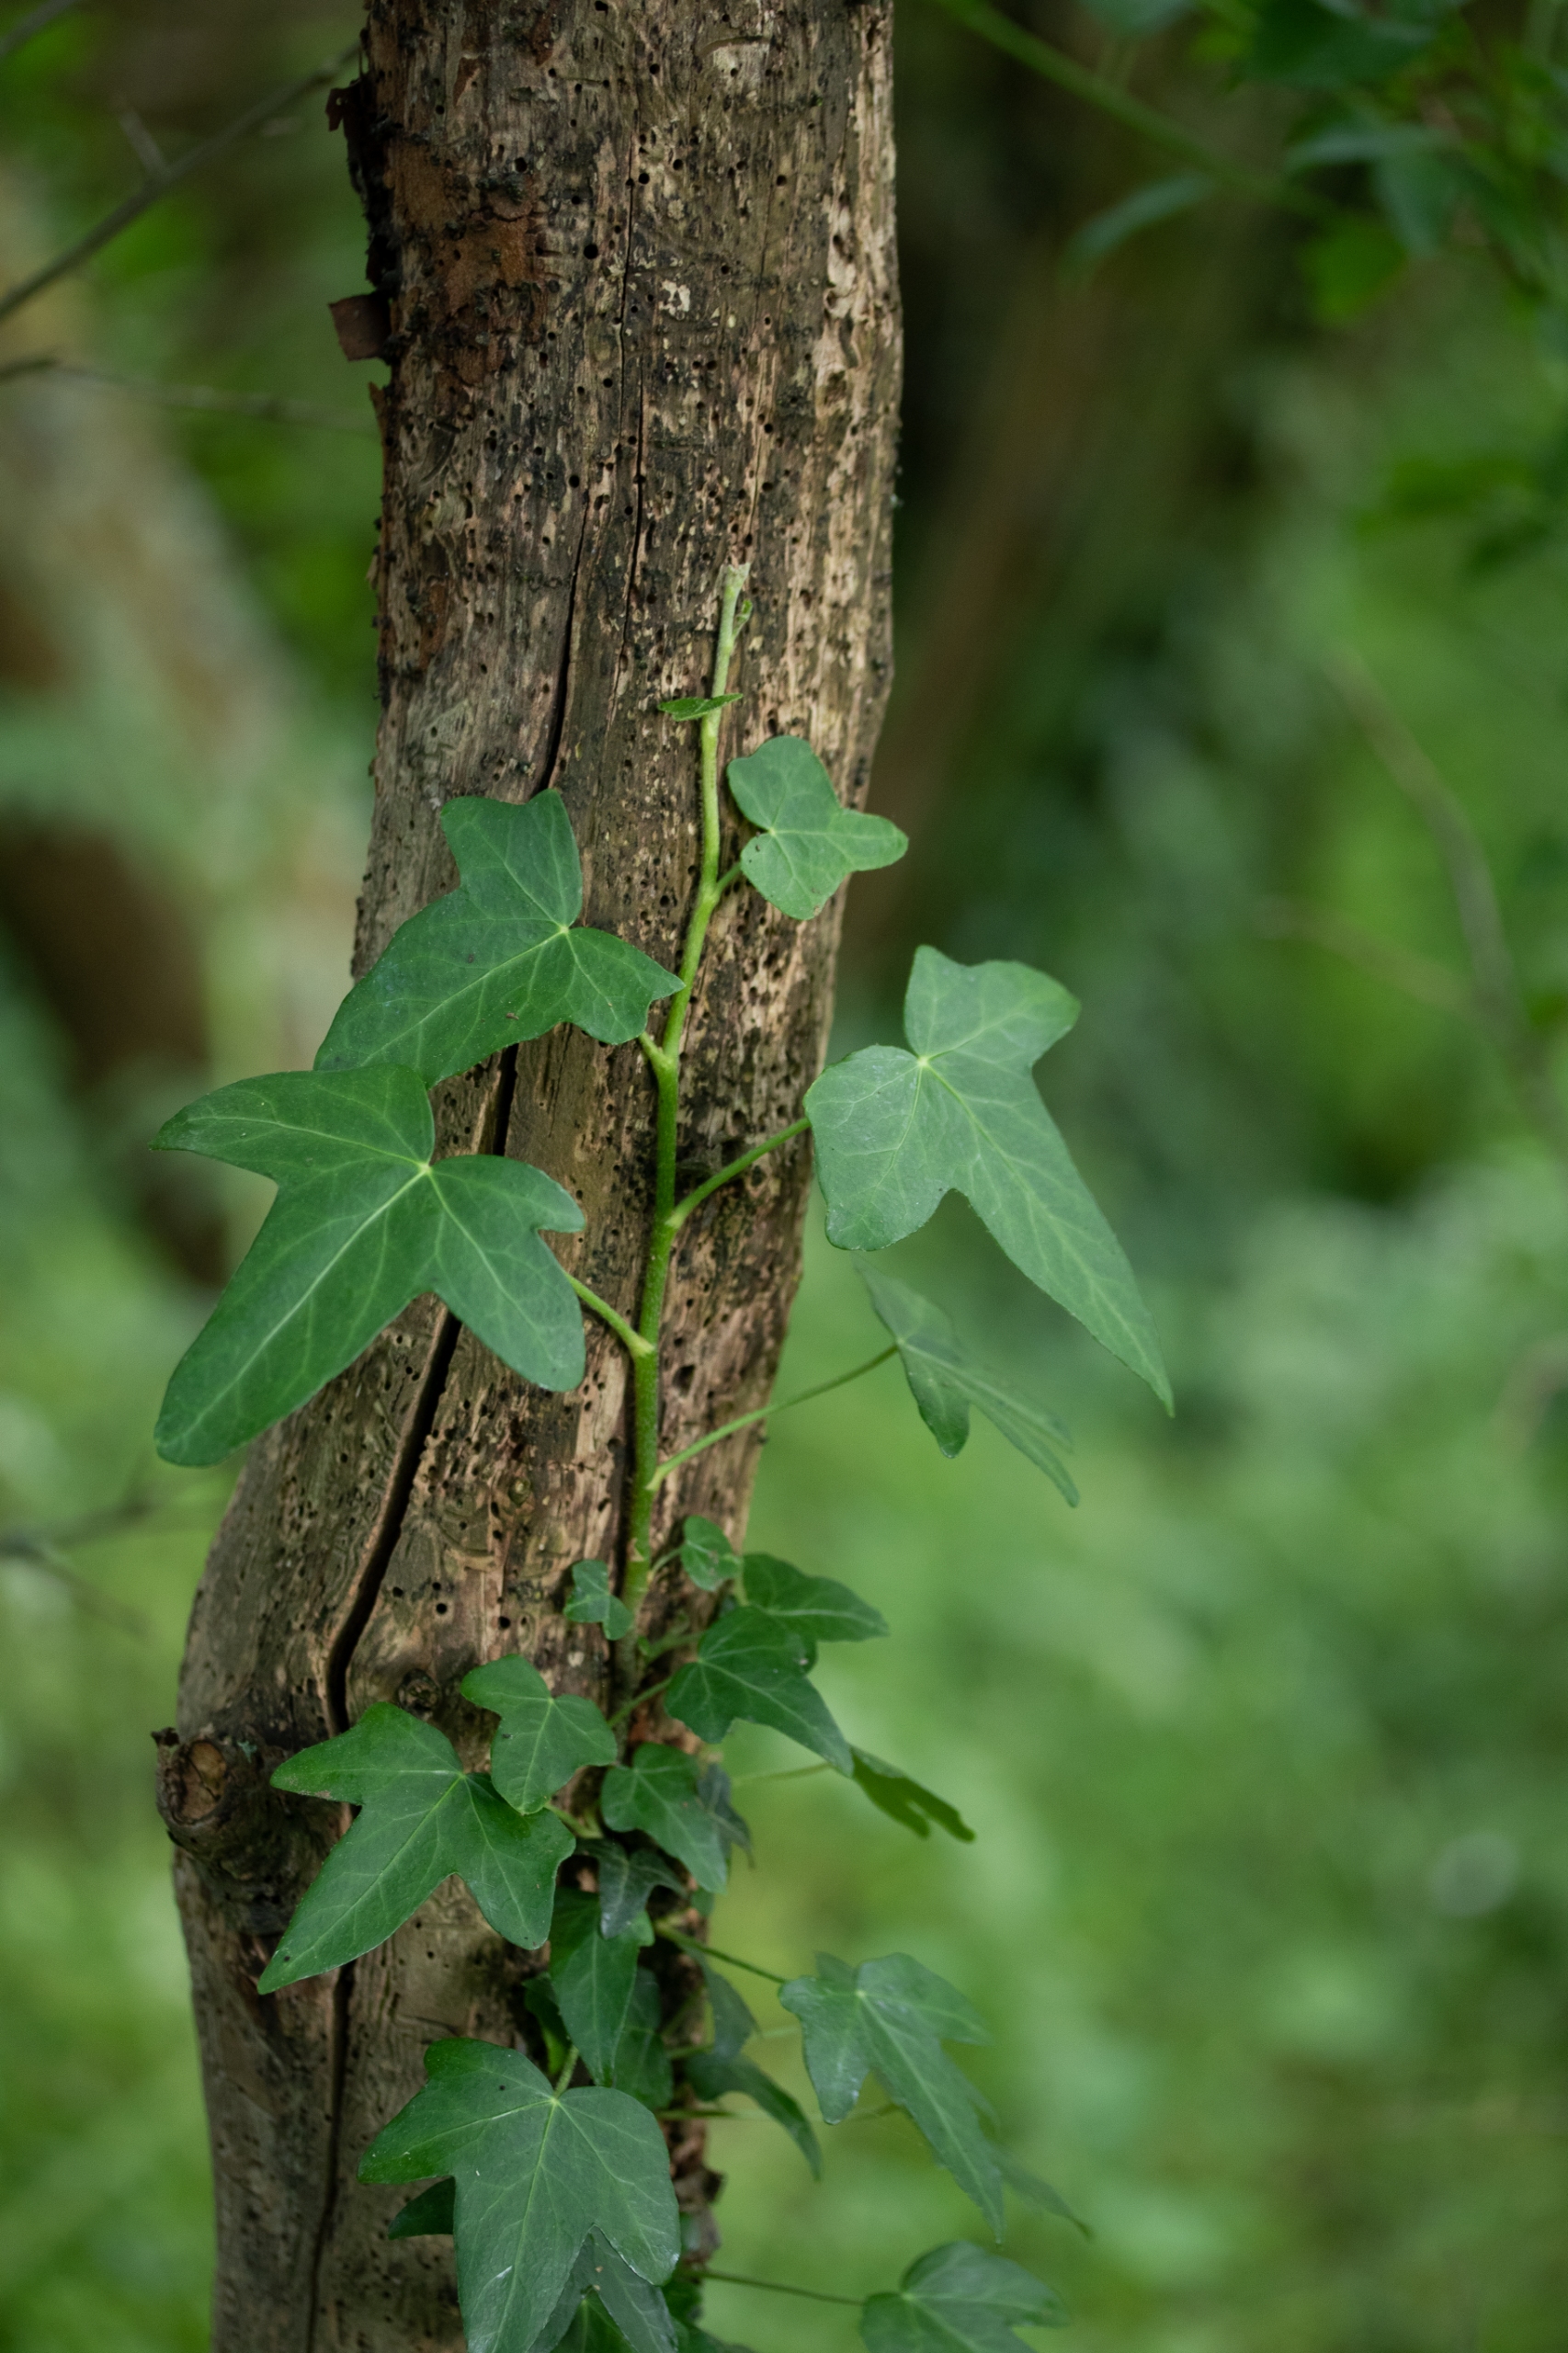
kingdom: Plantae
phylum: Tracheophyta
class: Magnoliopsida
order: Apiales
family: Araliaceae
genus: Hedera
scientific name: Hedera helix
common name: Vedbend
